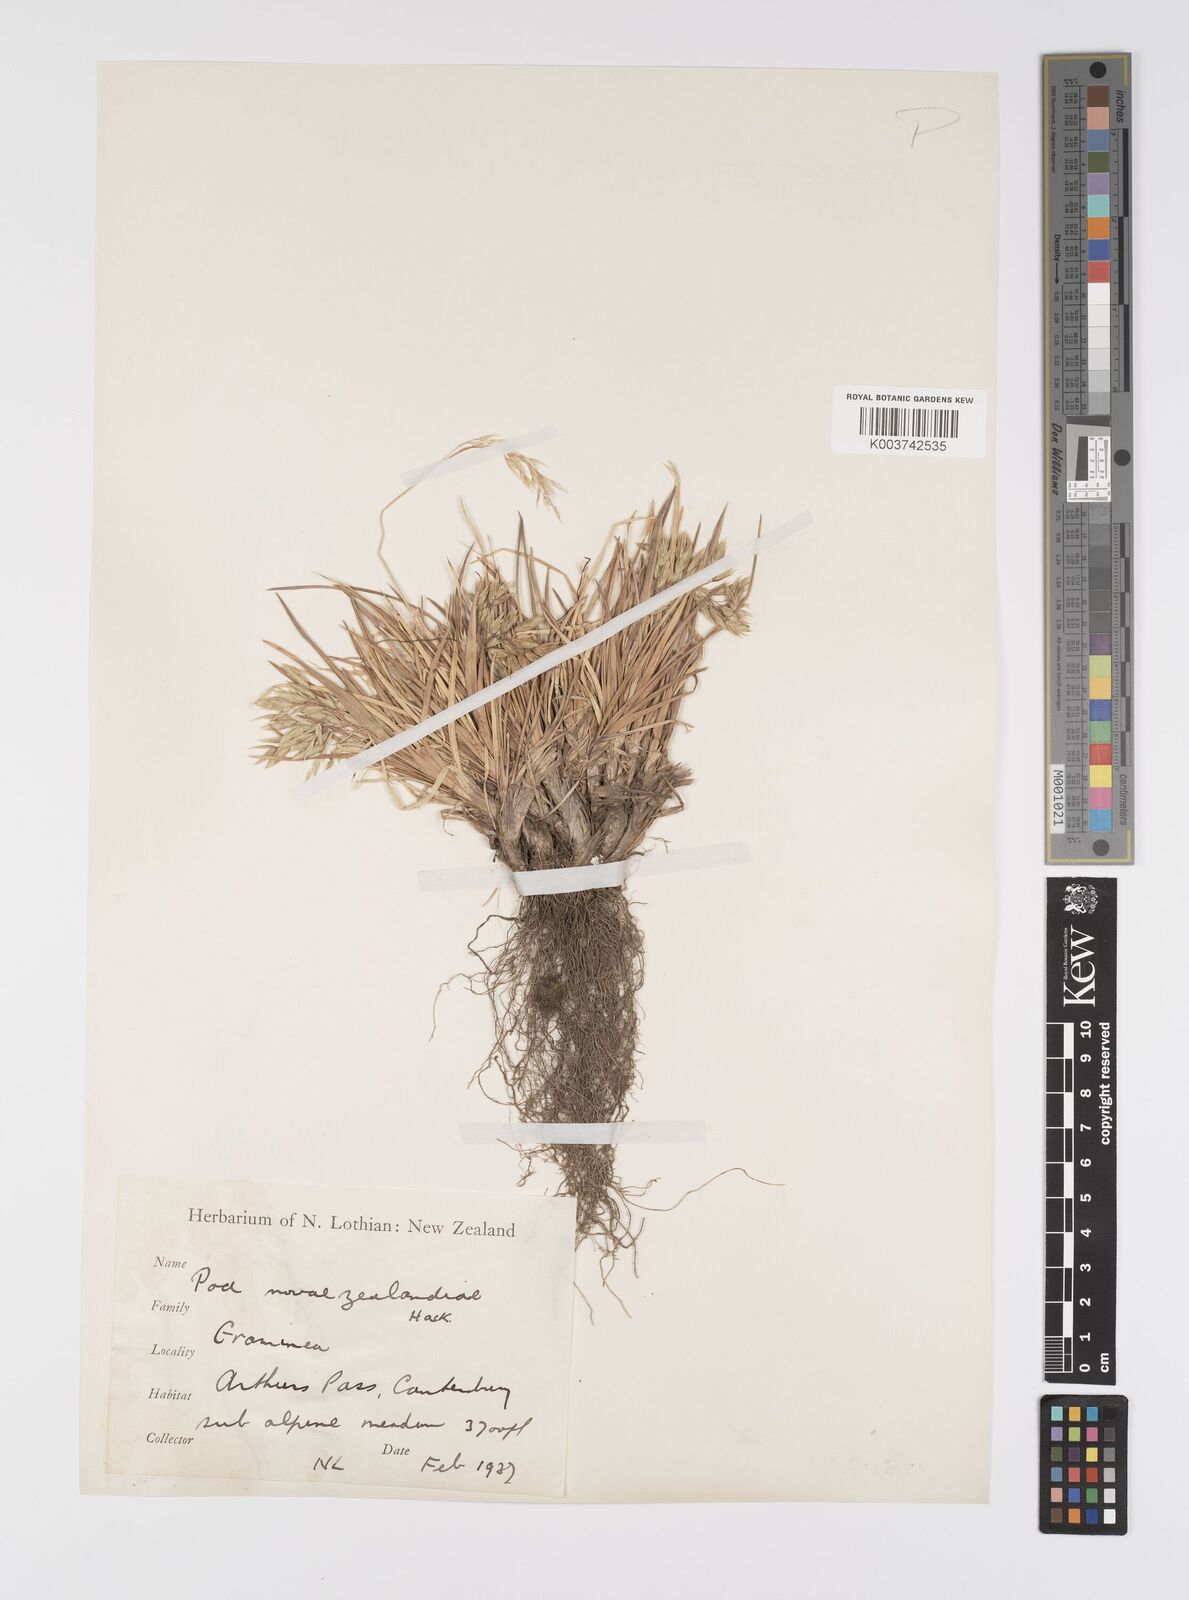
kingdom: Plantae
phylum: Tracheophyta
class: Liliopsida
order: Poales
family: Poaceae
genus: Poa
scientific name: Poa novae-zelandiae
